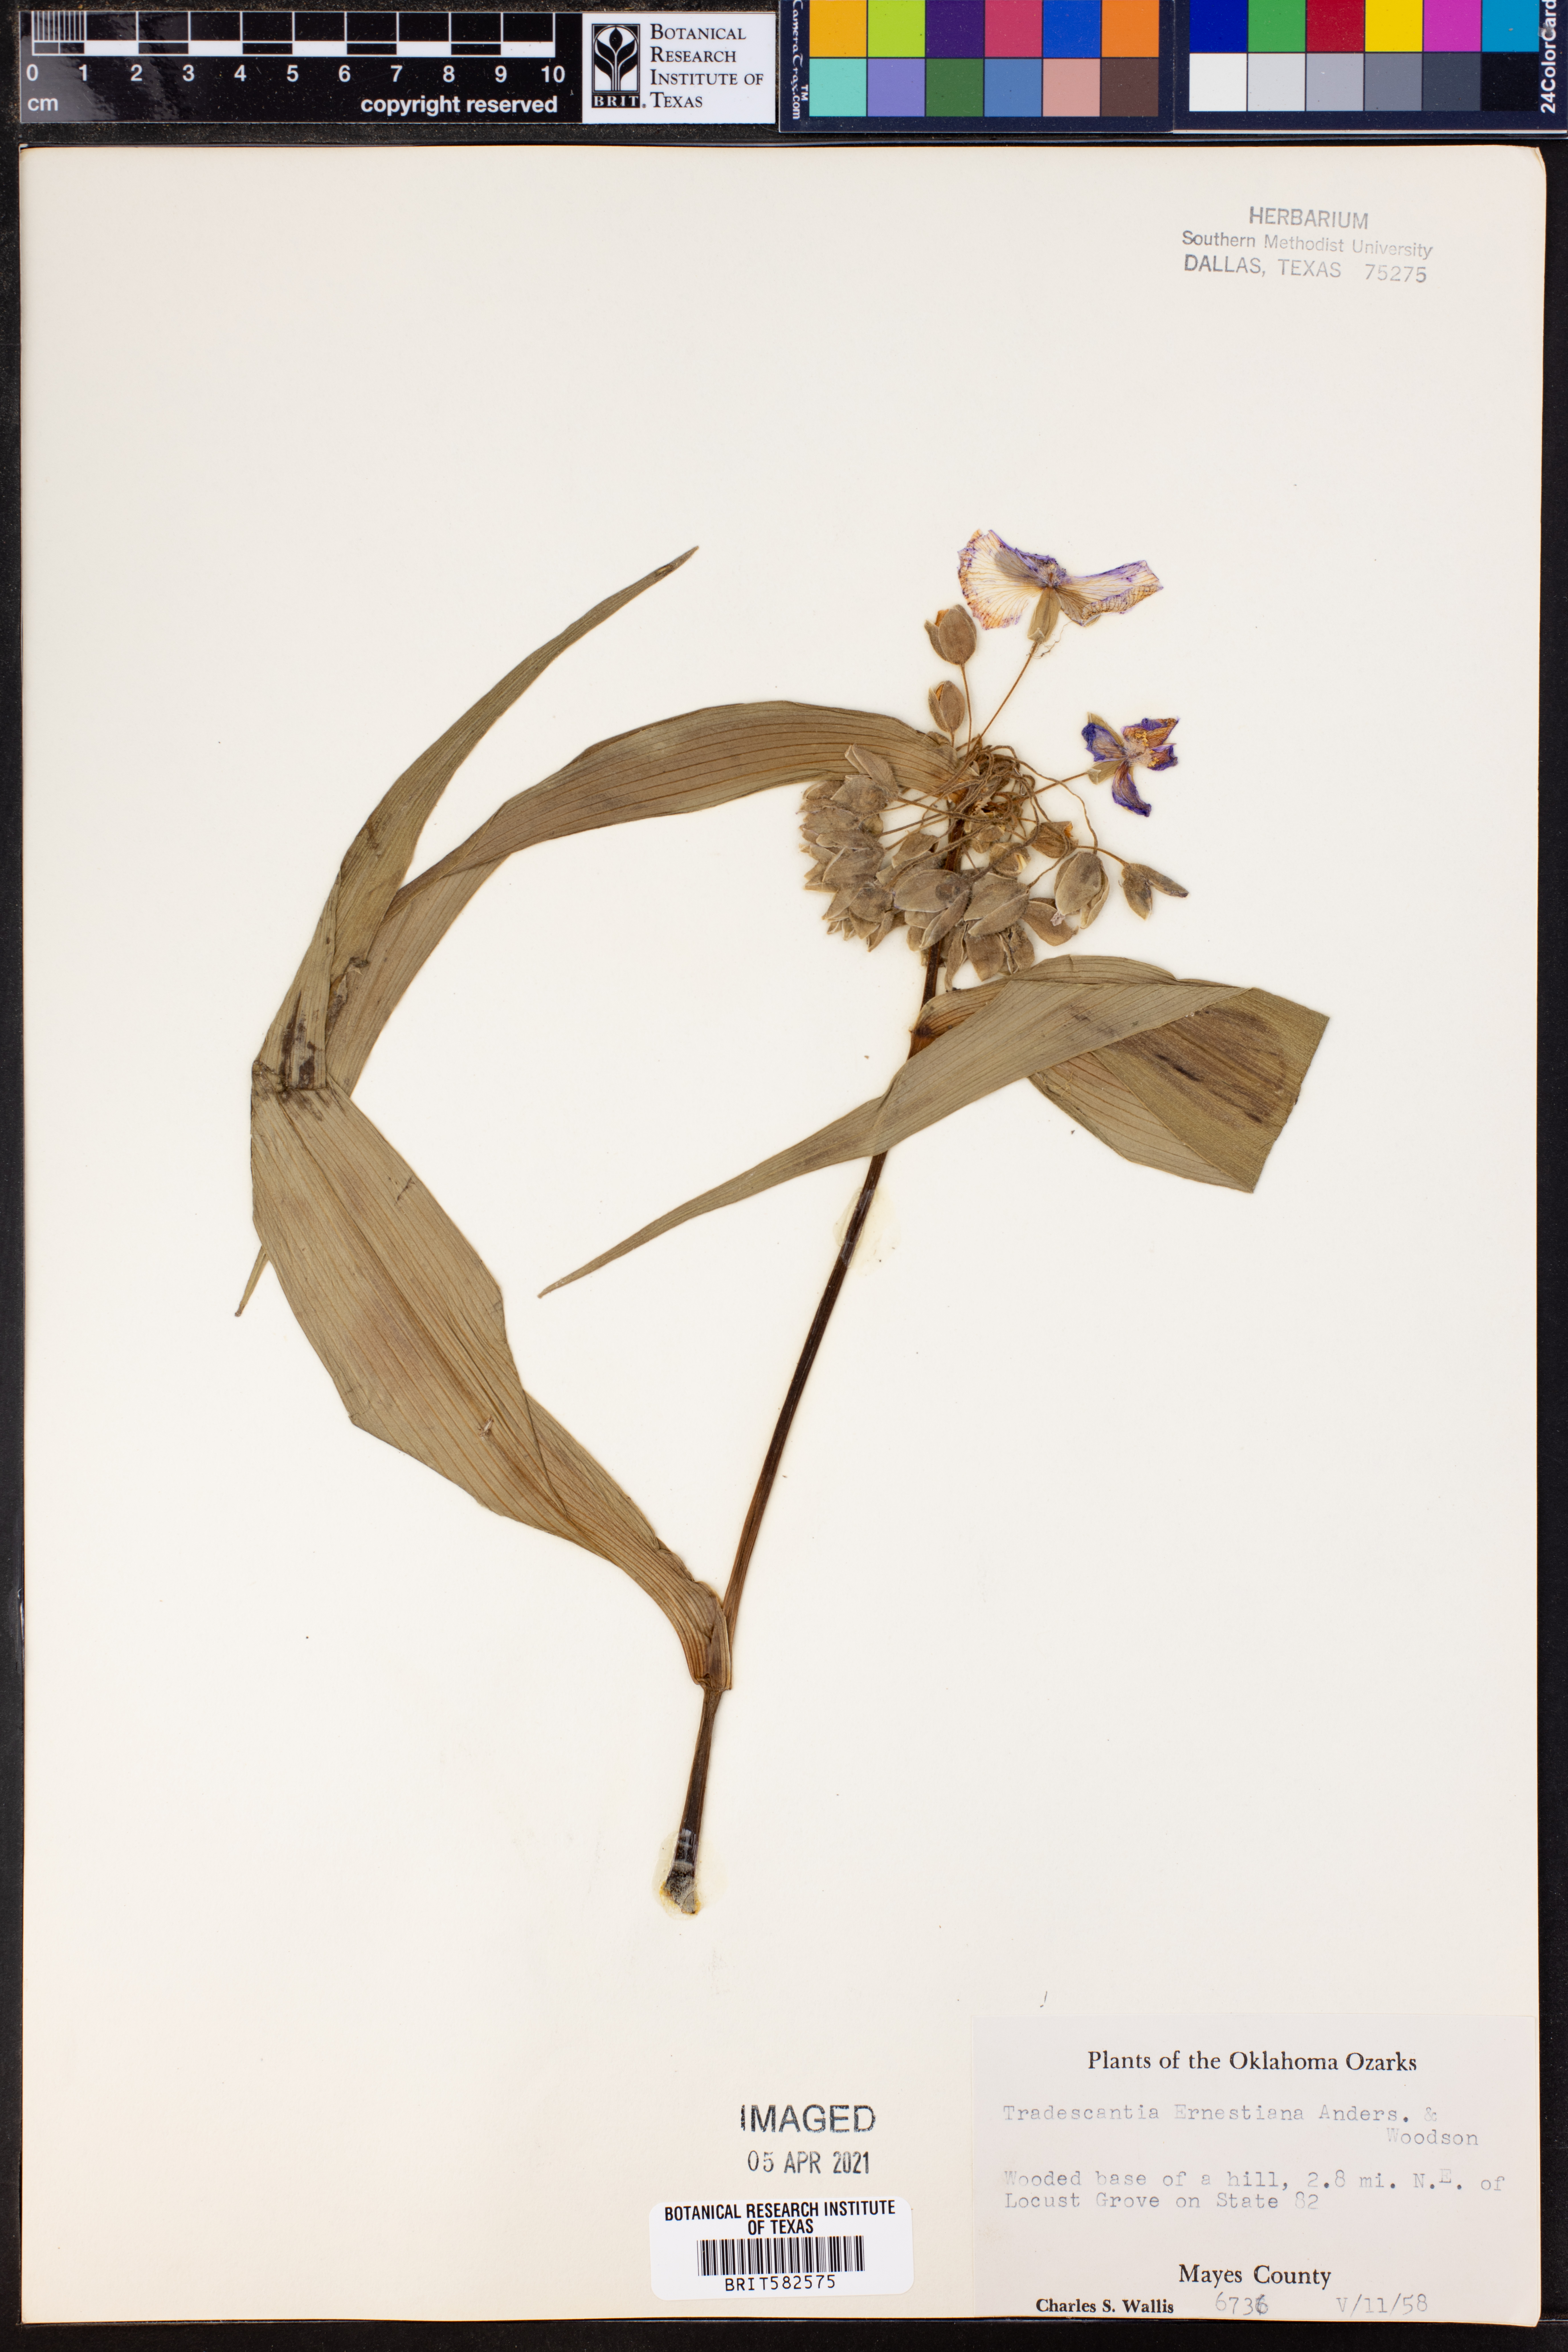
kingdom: Plantae
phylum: Tracheophyta
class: Liliopsida
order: Commelinales
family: Commelinaceae
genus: Tradescantia
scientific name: Tradescantia ernestiana
